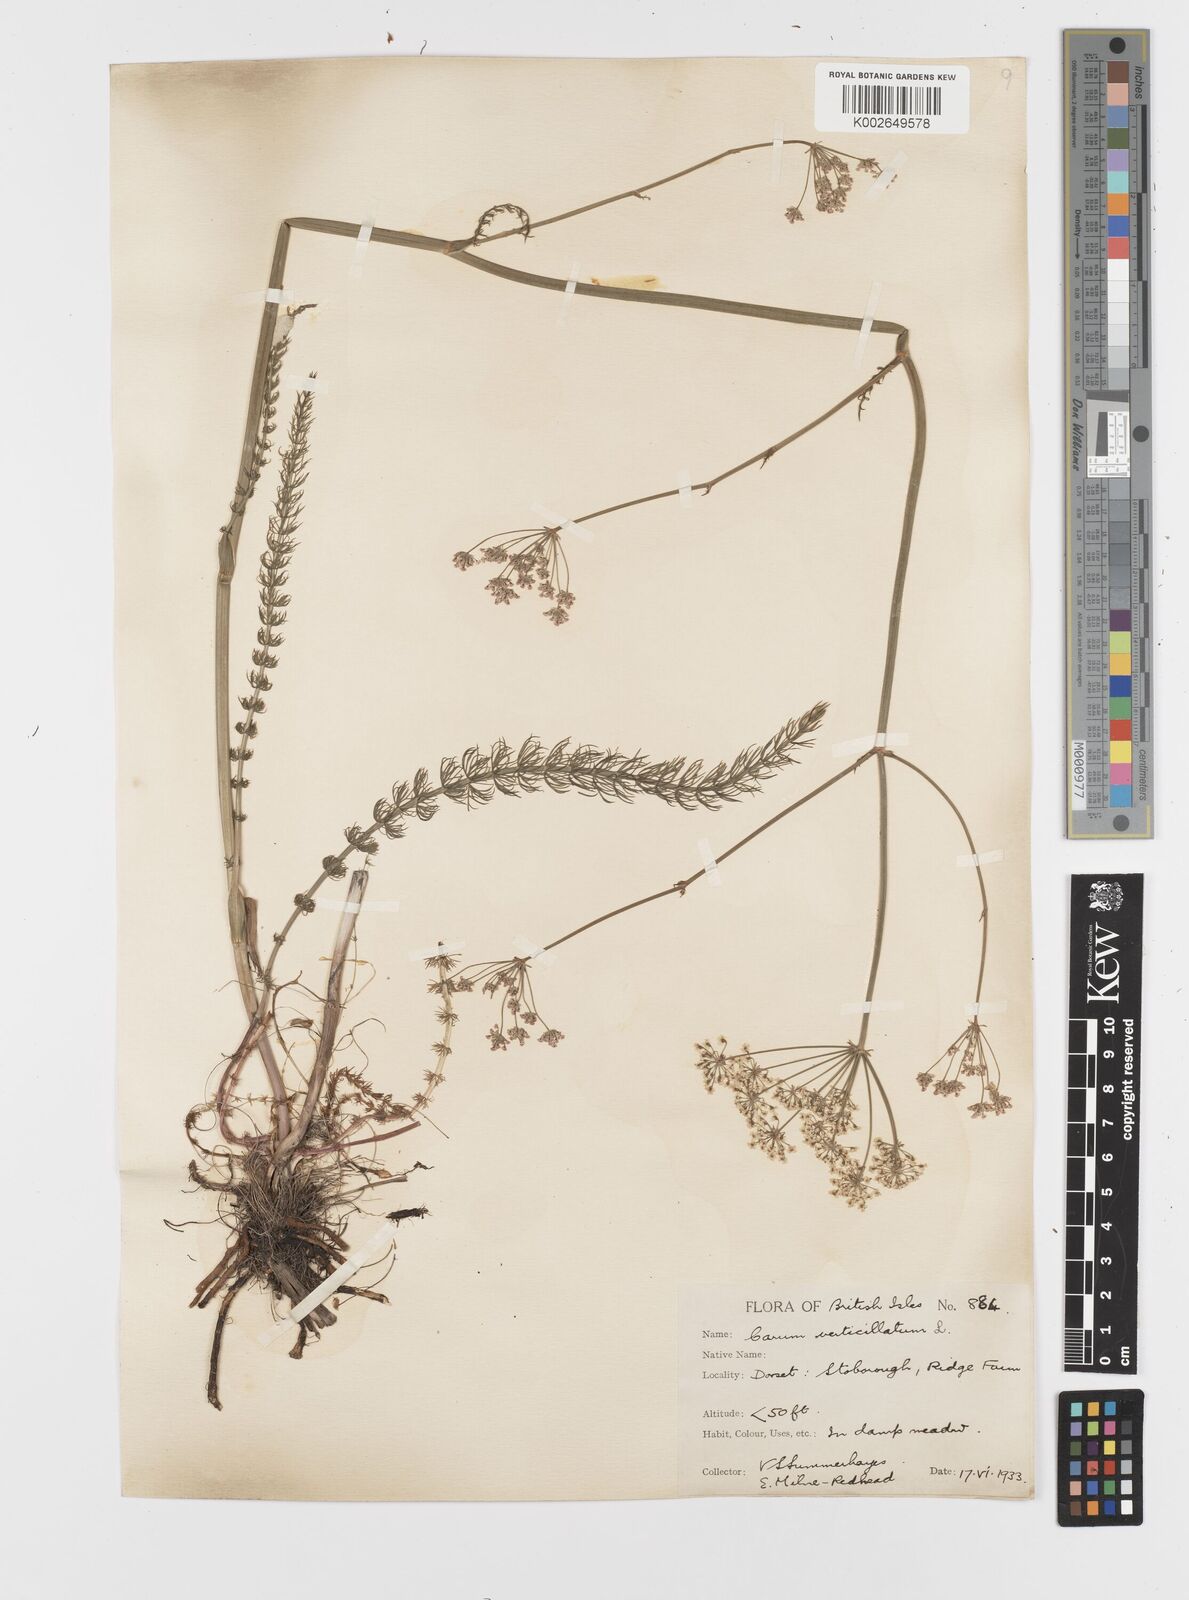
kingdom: Plantae
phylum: Tracheophyta
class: Magnoliopsida
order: Apiales
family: Apiaceae
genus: Trocdaris
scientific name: Trocdaris verticillatum
